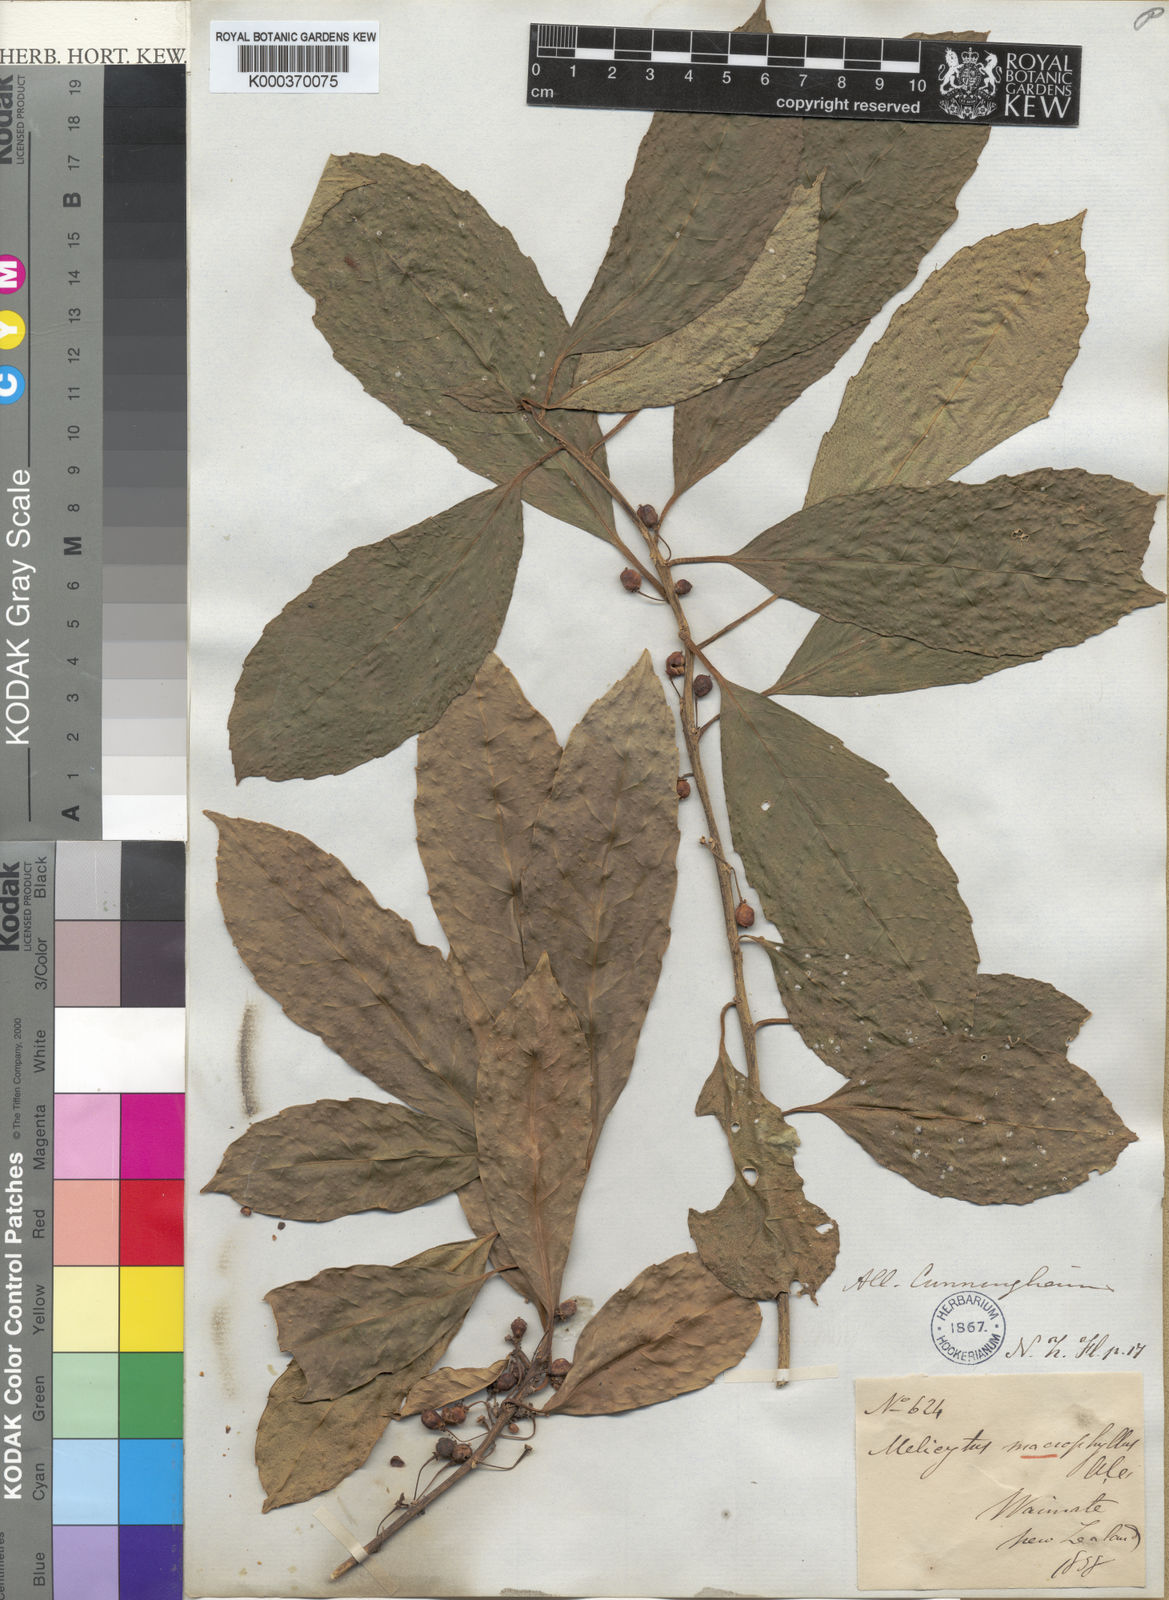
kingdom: Plantae
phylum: Tracheophyta
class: Magnoliopsida
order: Malpighiales
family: Violaceae
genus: Melicytus
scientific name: Melicytus macrophyllus
